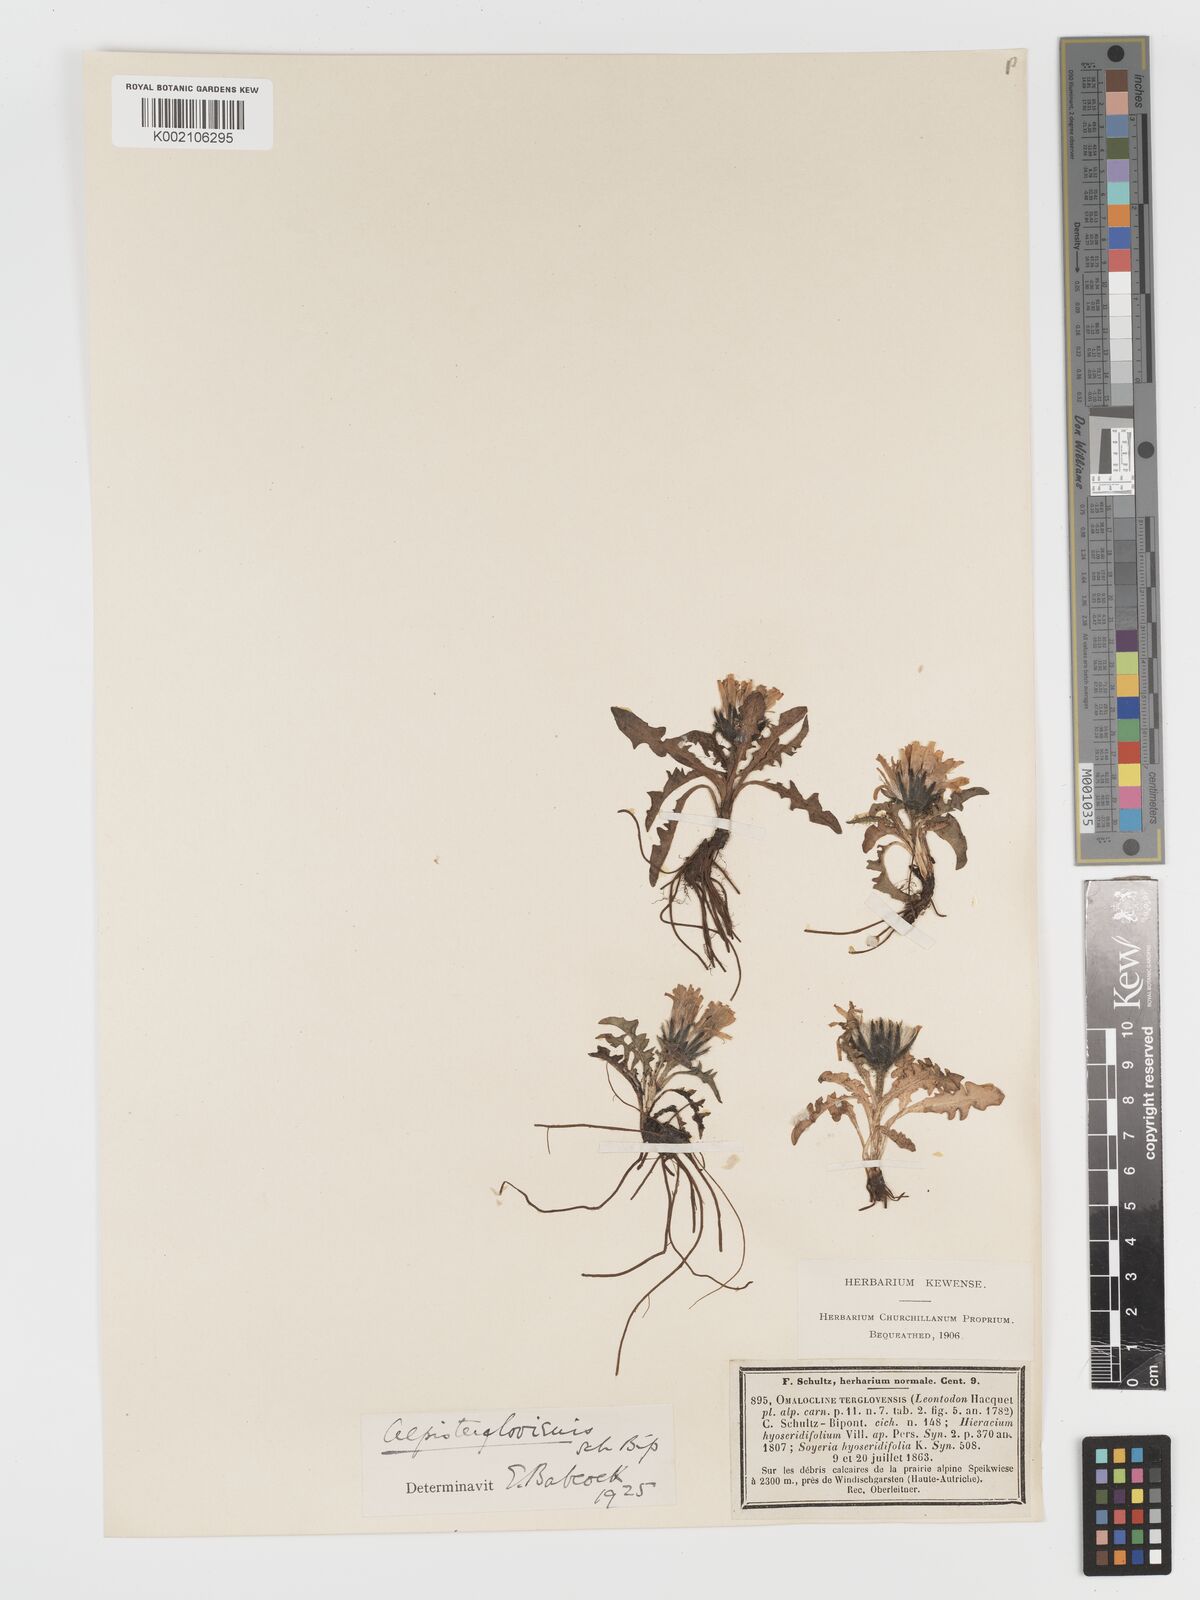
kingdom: Plantae
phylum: Tracheophyta
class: Magnoliopsida
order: Asterales
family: Asteraceae
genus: Crepis
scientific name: Crepis terglouensis
